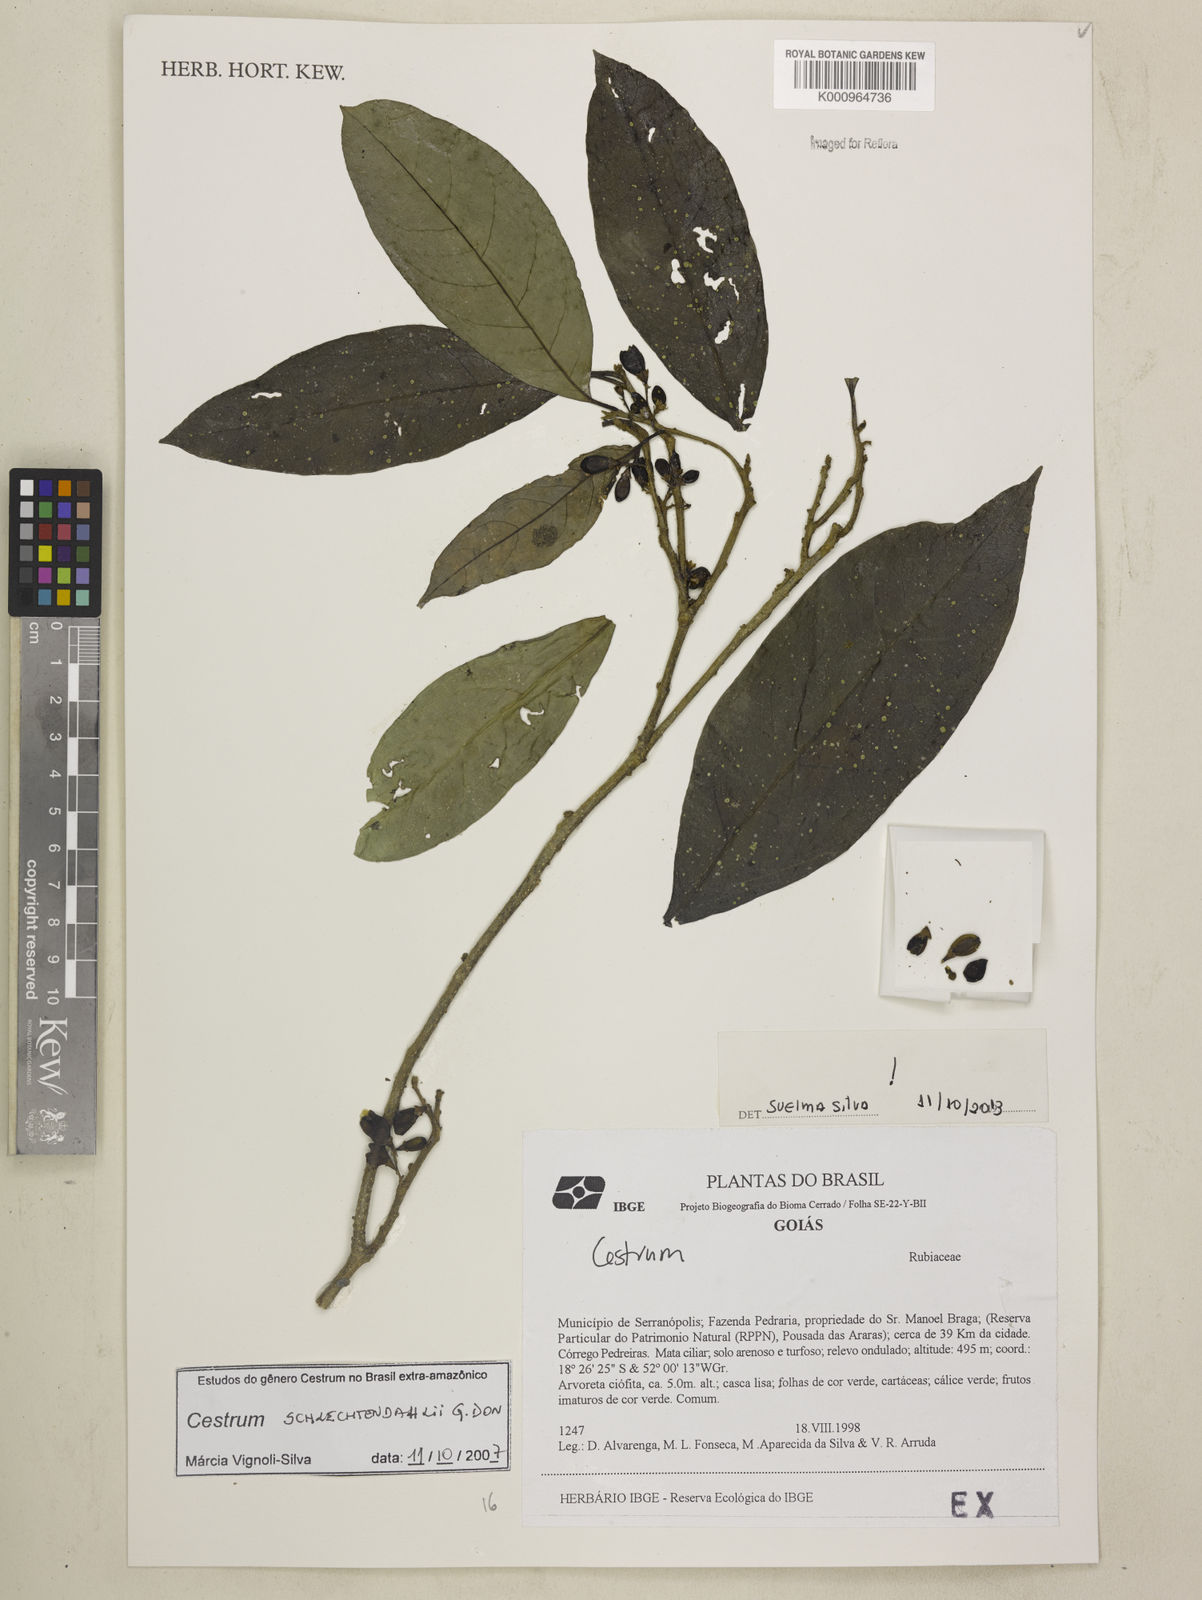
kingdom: Plantae
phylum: Tracheophyta
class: Magnoliopsida
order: Solanales
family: Solanaceae
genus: Cestrum
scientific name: Cestrum schlechtendalii
